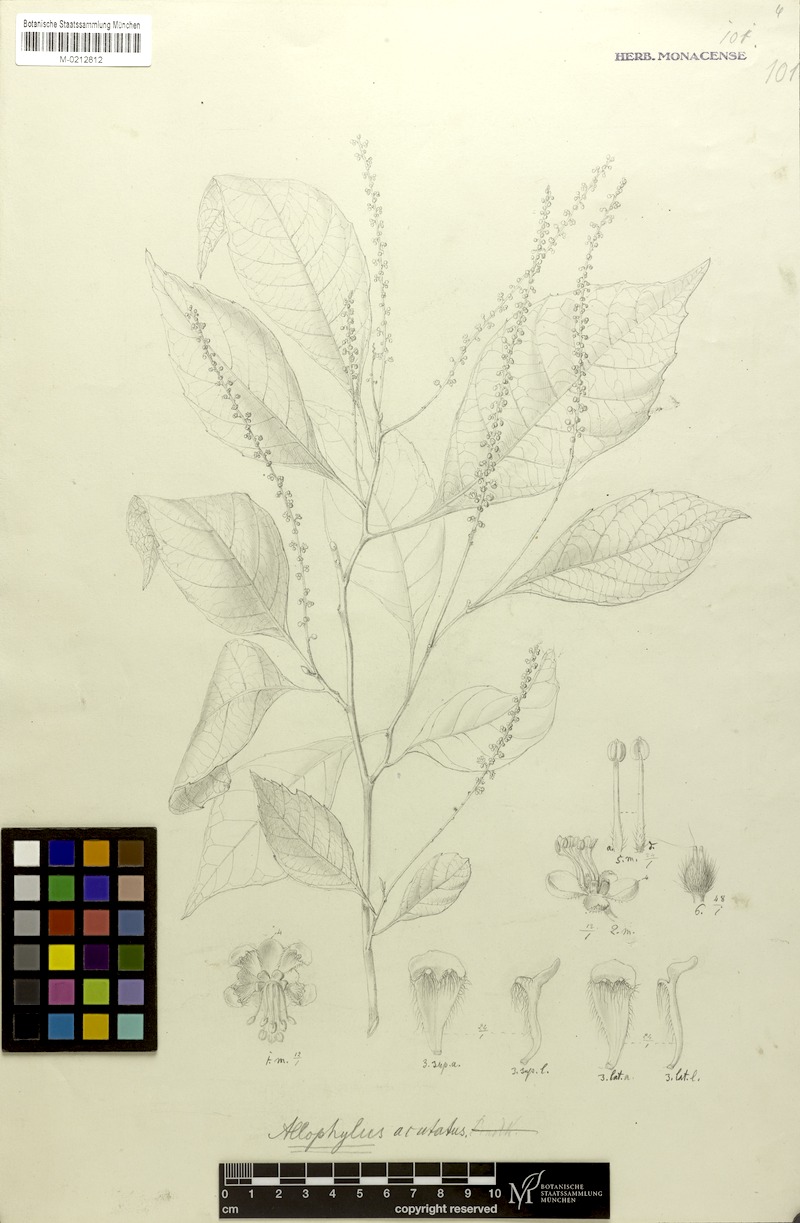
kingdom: Plantae
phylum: Tracheophyta
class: Magnoliopsida
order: Sapindales
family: Sapindaceae
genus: Allophylus
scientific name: Allophylus acutatus
